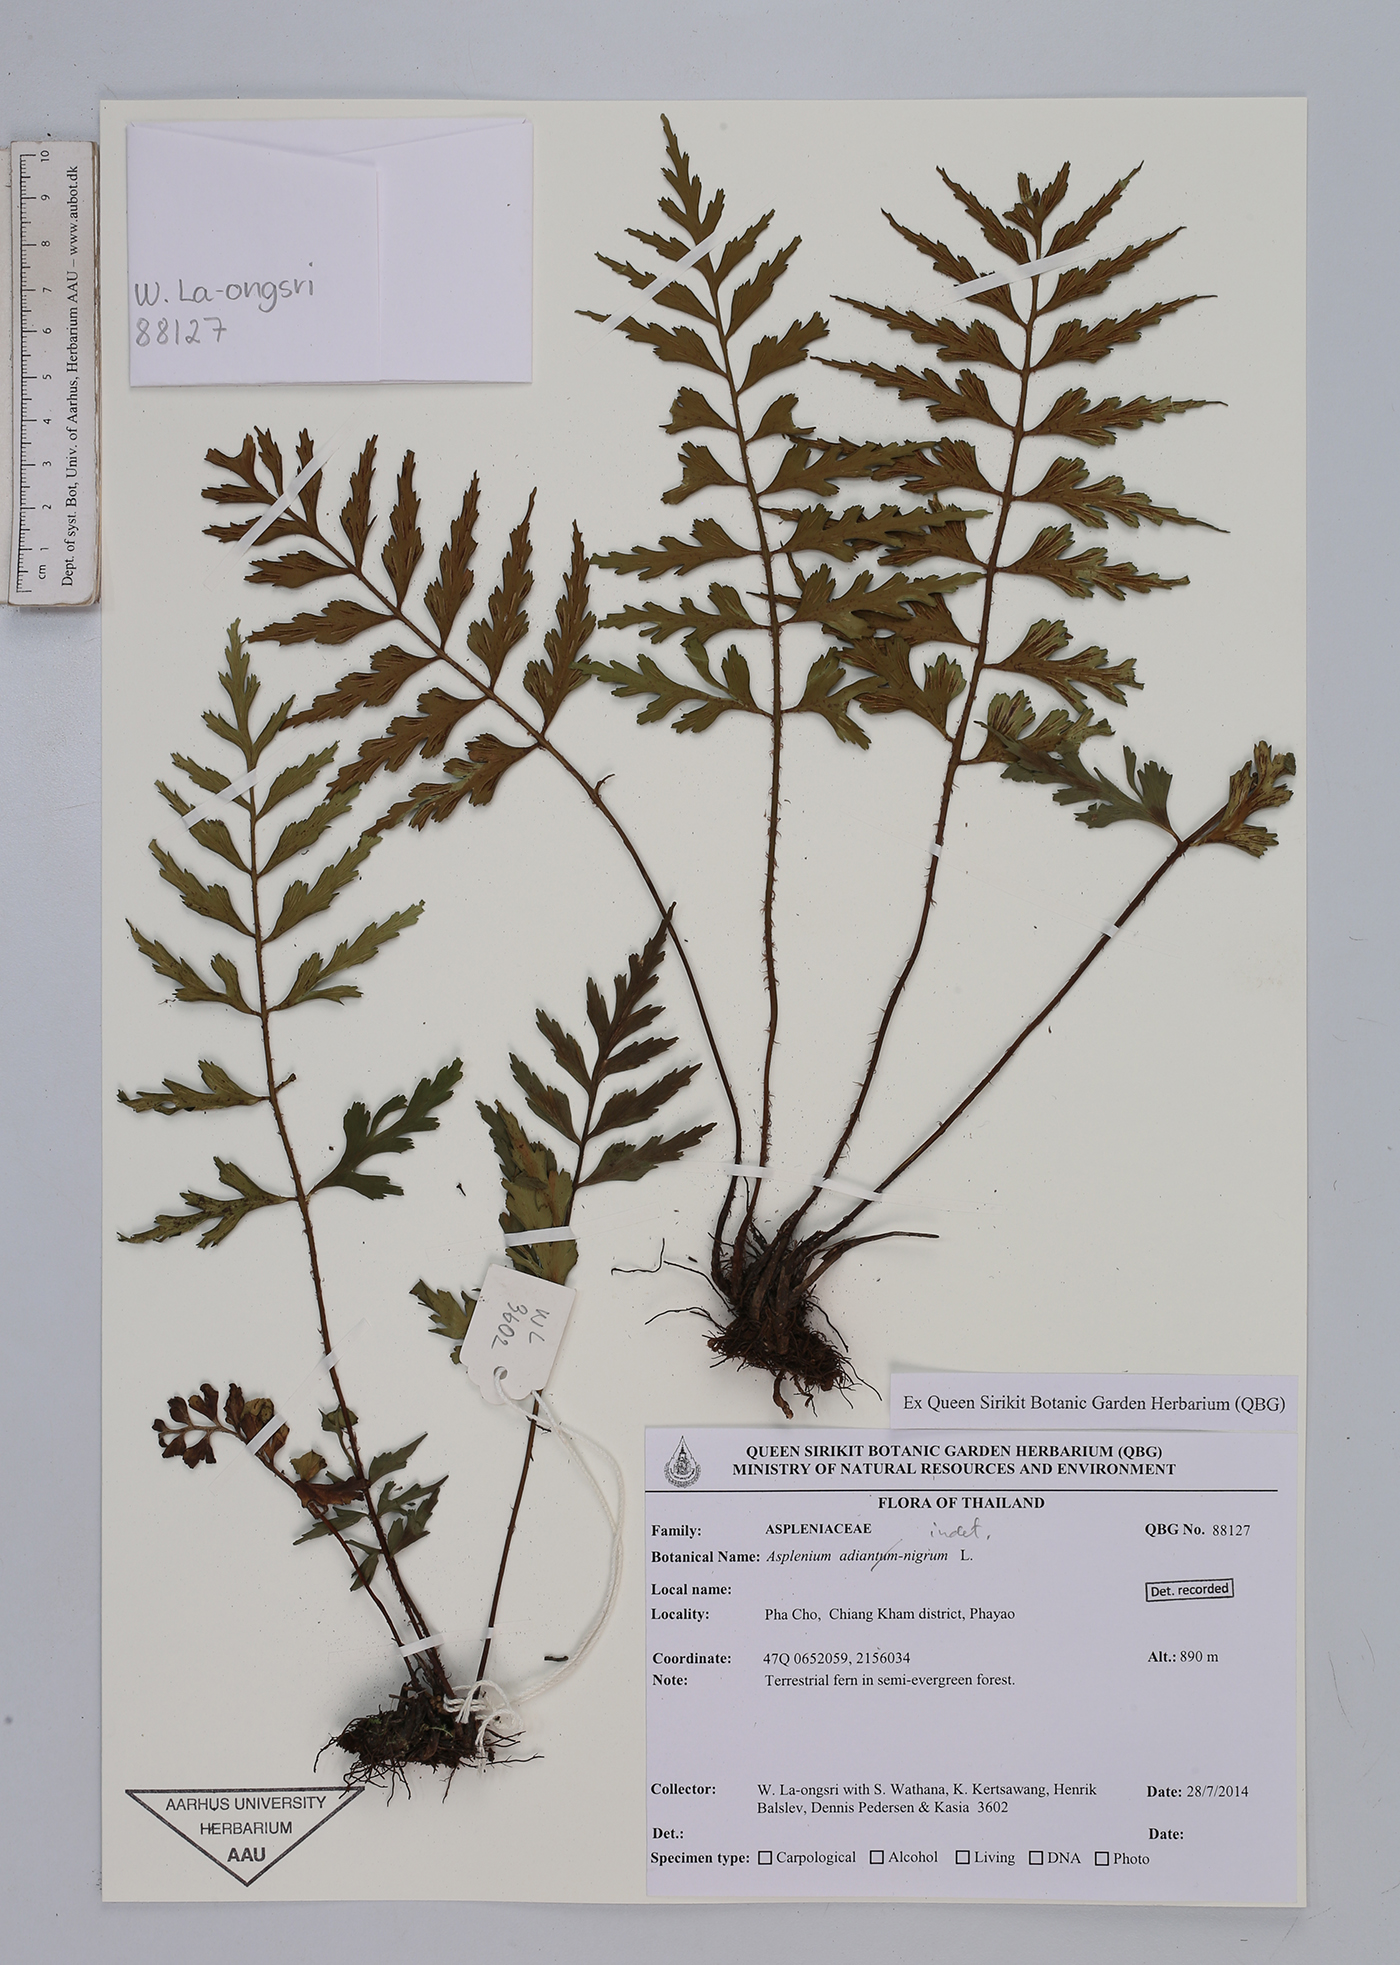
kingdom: Plantae
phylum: Tracheophyta
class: Polypodiopsida
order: Polypodiales
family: Aspleniaceae
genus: Asplenium
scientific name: Asplenium
